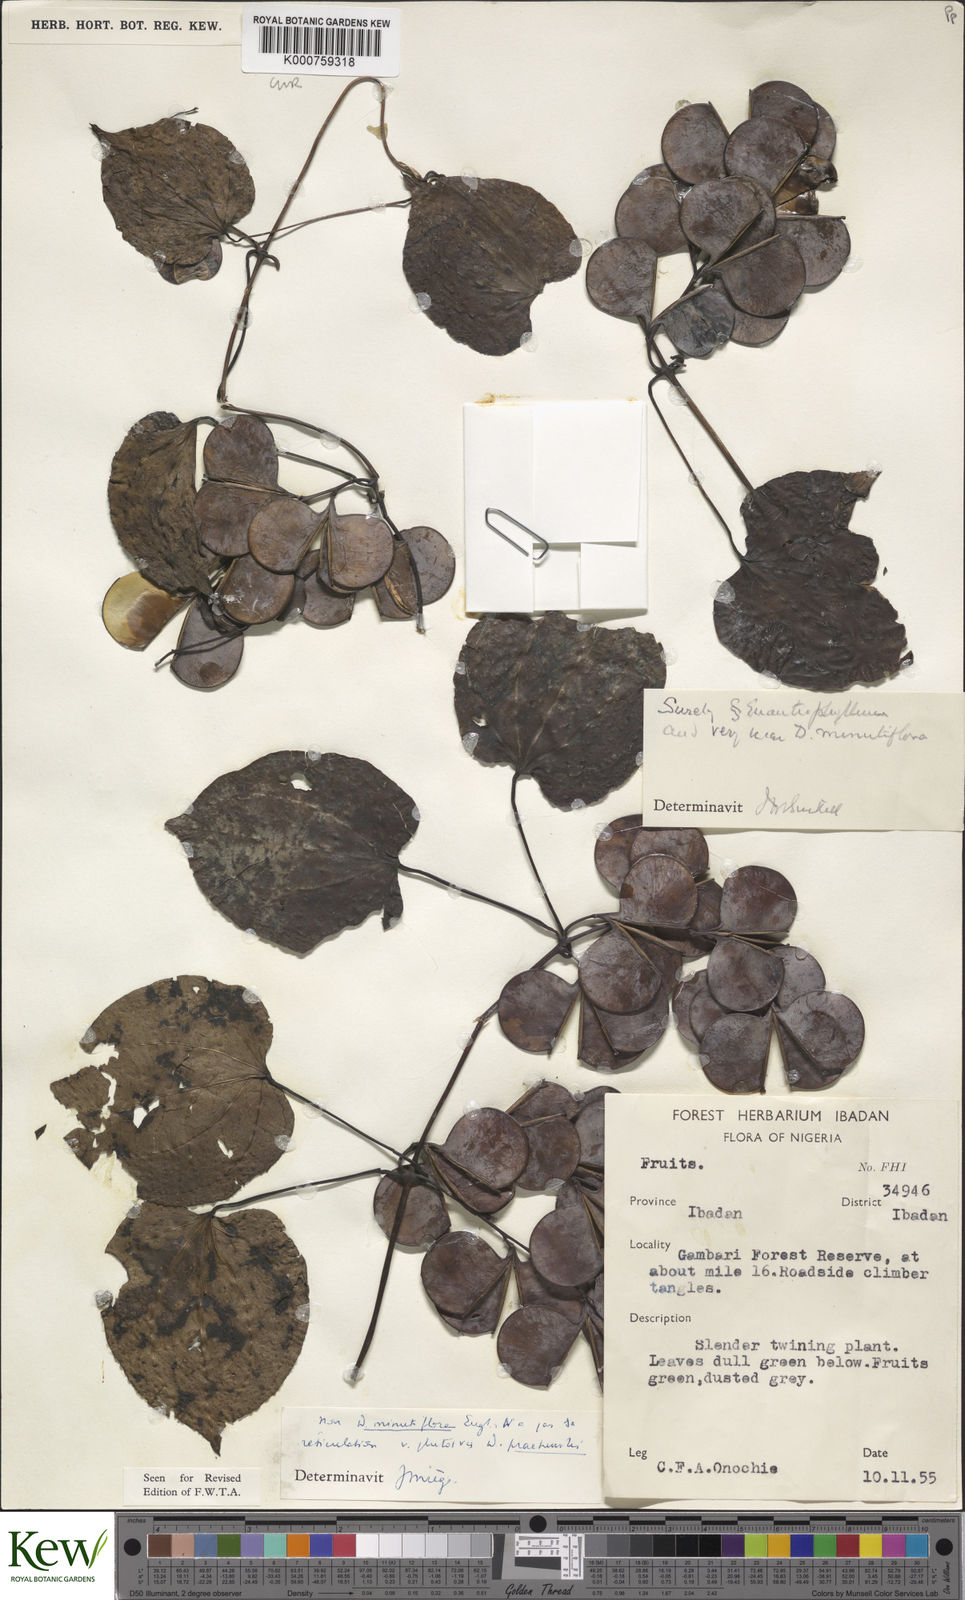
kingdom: Plantae
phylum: Tracheophyta
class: Liliopsida
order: Dioscoreales
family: Dioscoreaceae
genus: Dioscorea
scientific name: Dioscorea minutiflora
